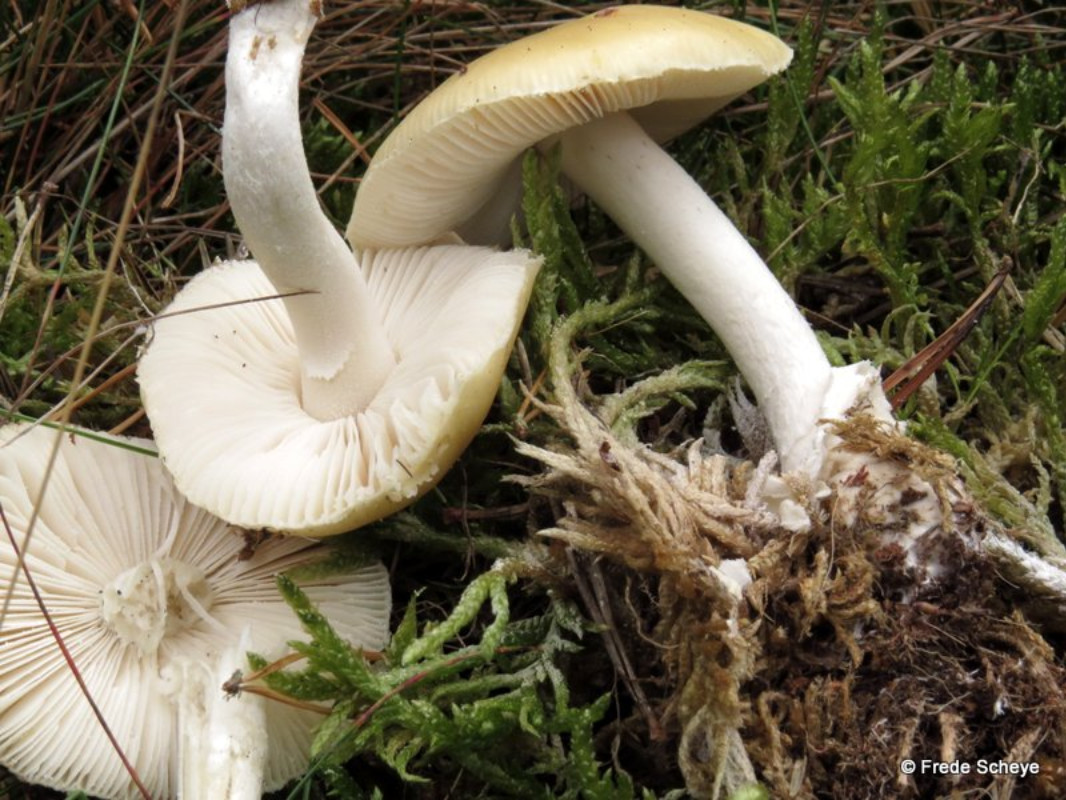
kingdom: Fungi
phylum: Basidiomycota
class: Agaricomycetes
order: Agaricales
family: Amanitaceae
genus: Amanita
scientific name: Amanita gemmata
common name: okkergul fluesvamp
